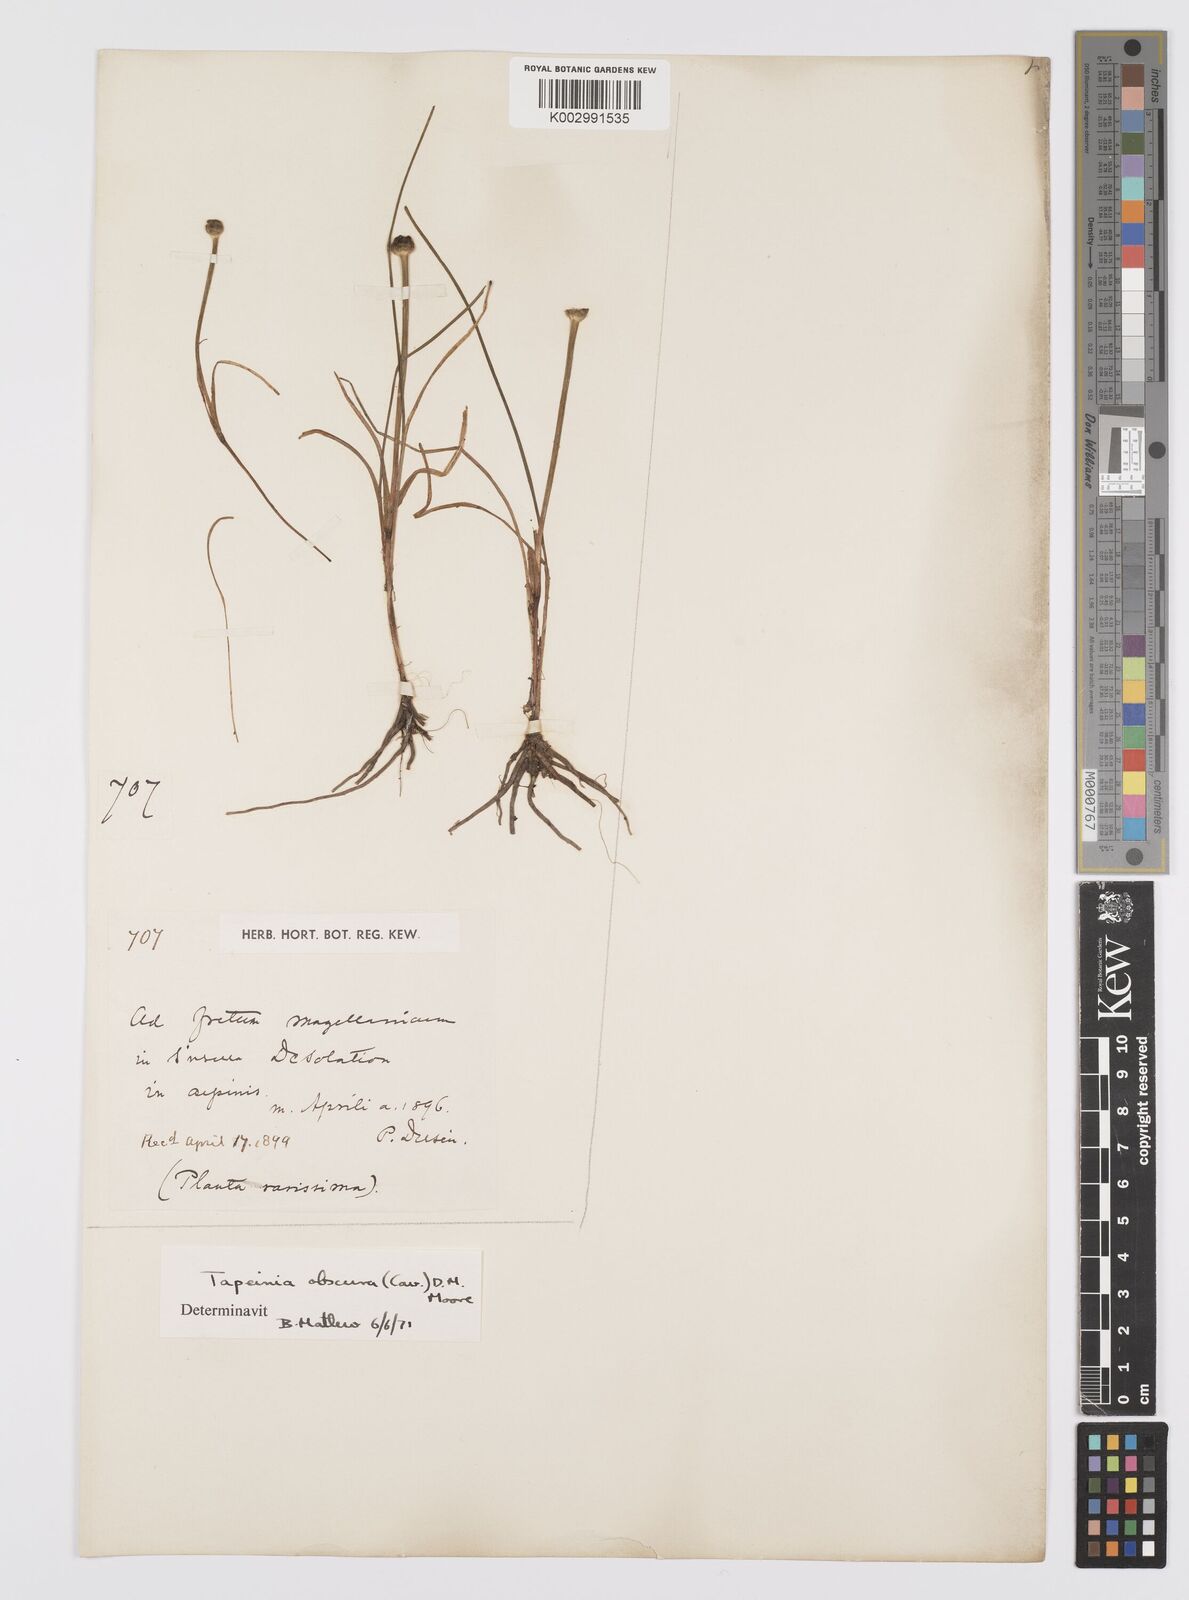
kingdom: Plantae
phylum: Tracheophyta
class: Liliopsida
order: Asparagales
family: Iridaceae
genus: Olsynium
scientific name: Olsynium obscurum
